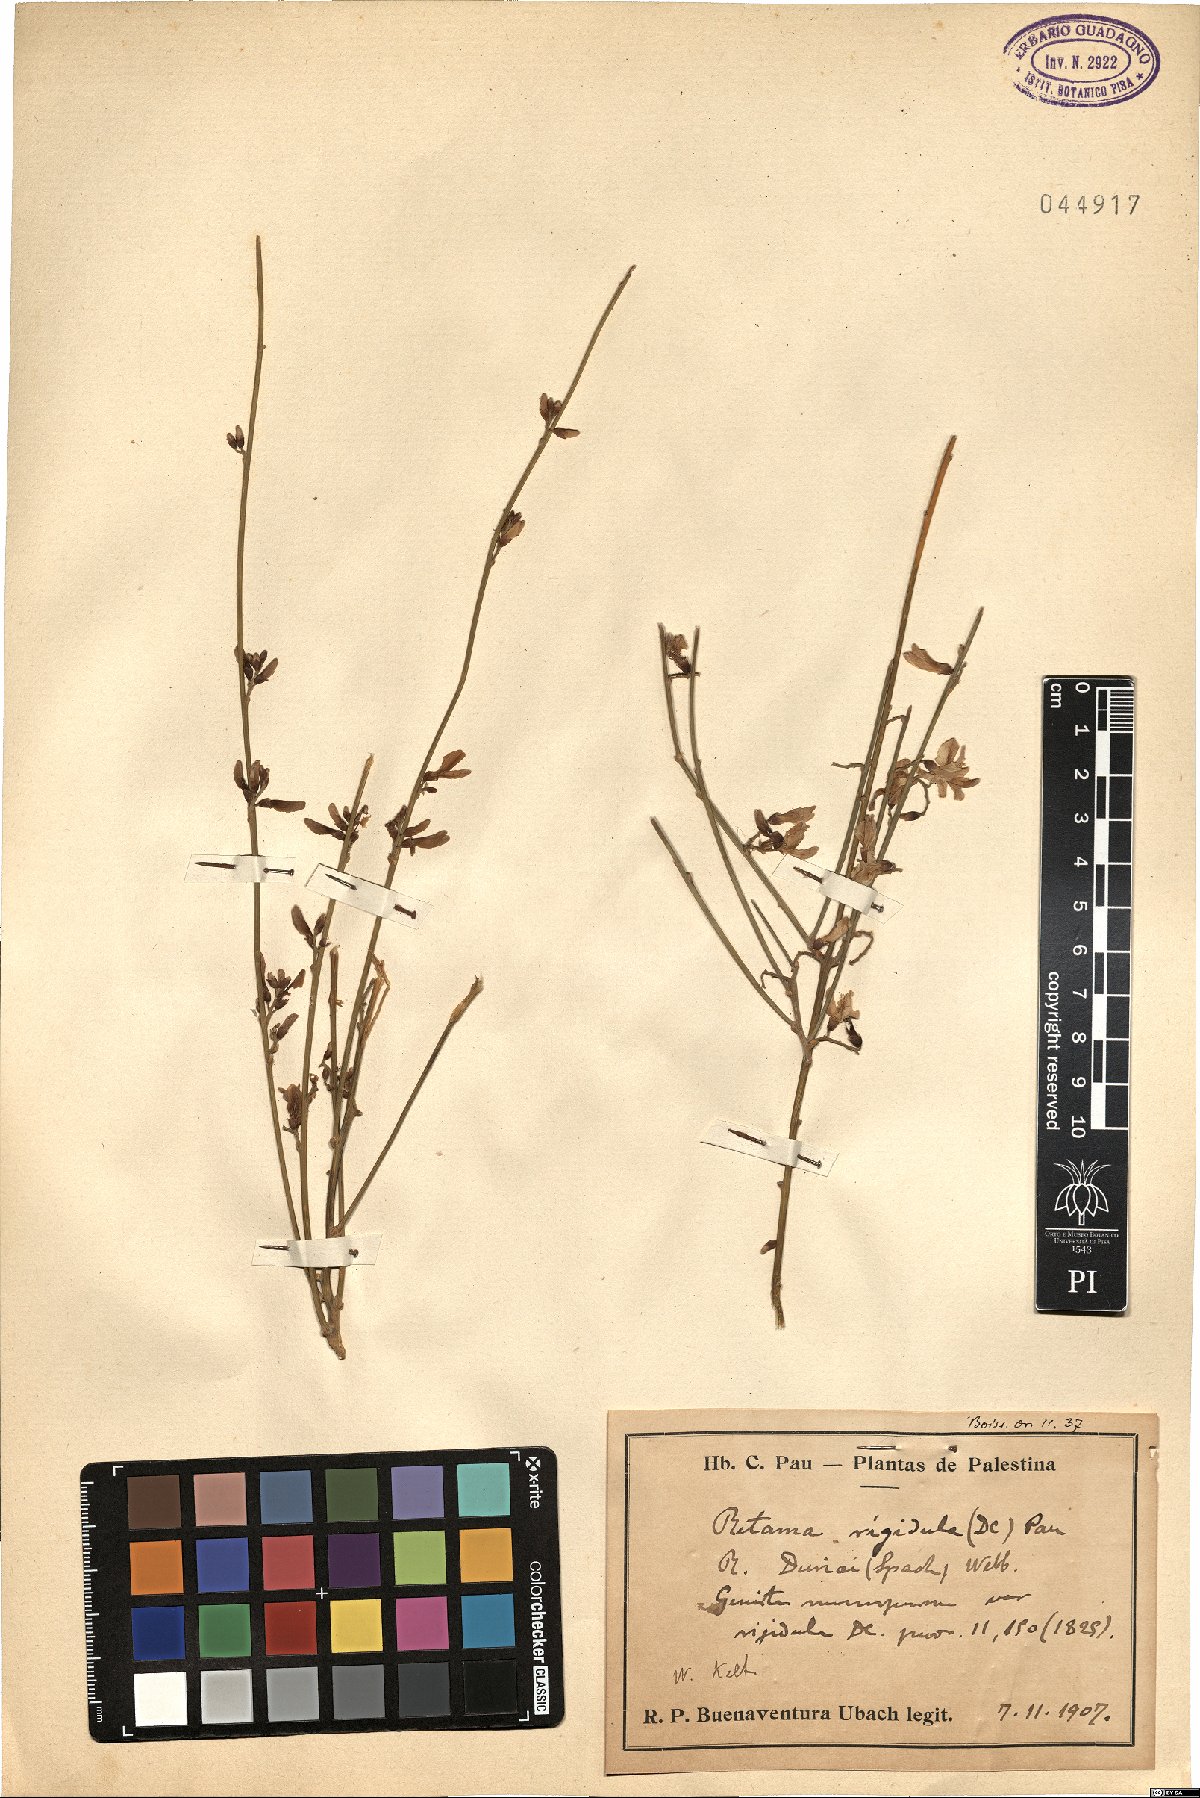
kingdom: Plantae
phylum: Tracheophyta
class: Magnoliopsida
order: Fabales
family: Fabaceae
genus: Retama
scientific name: Retama
